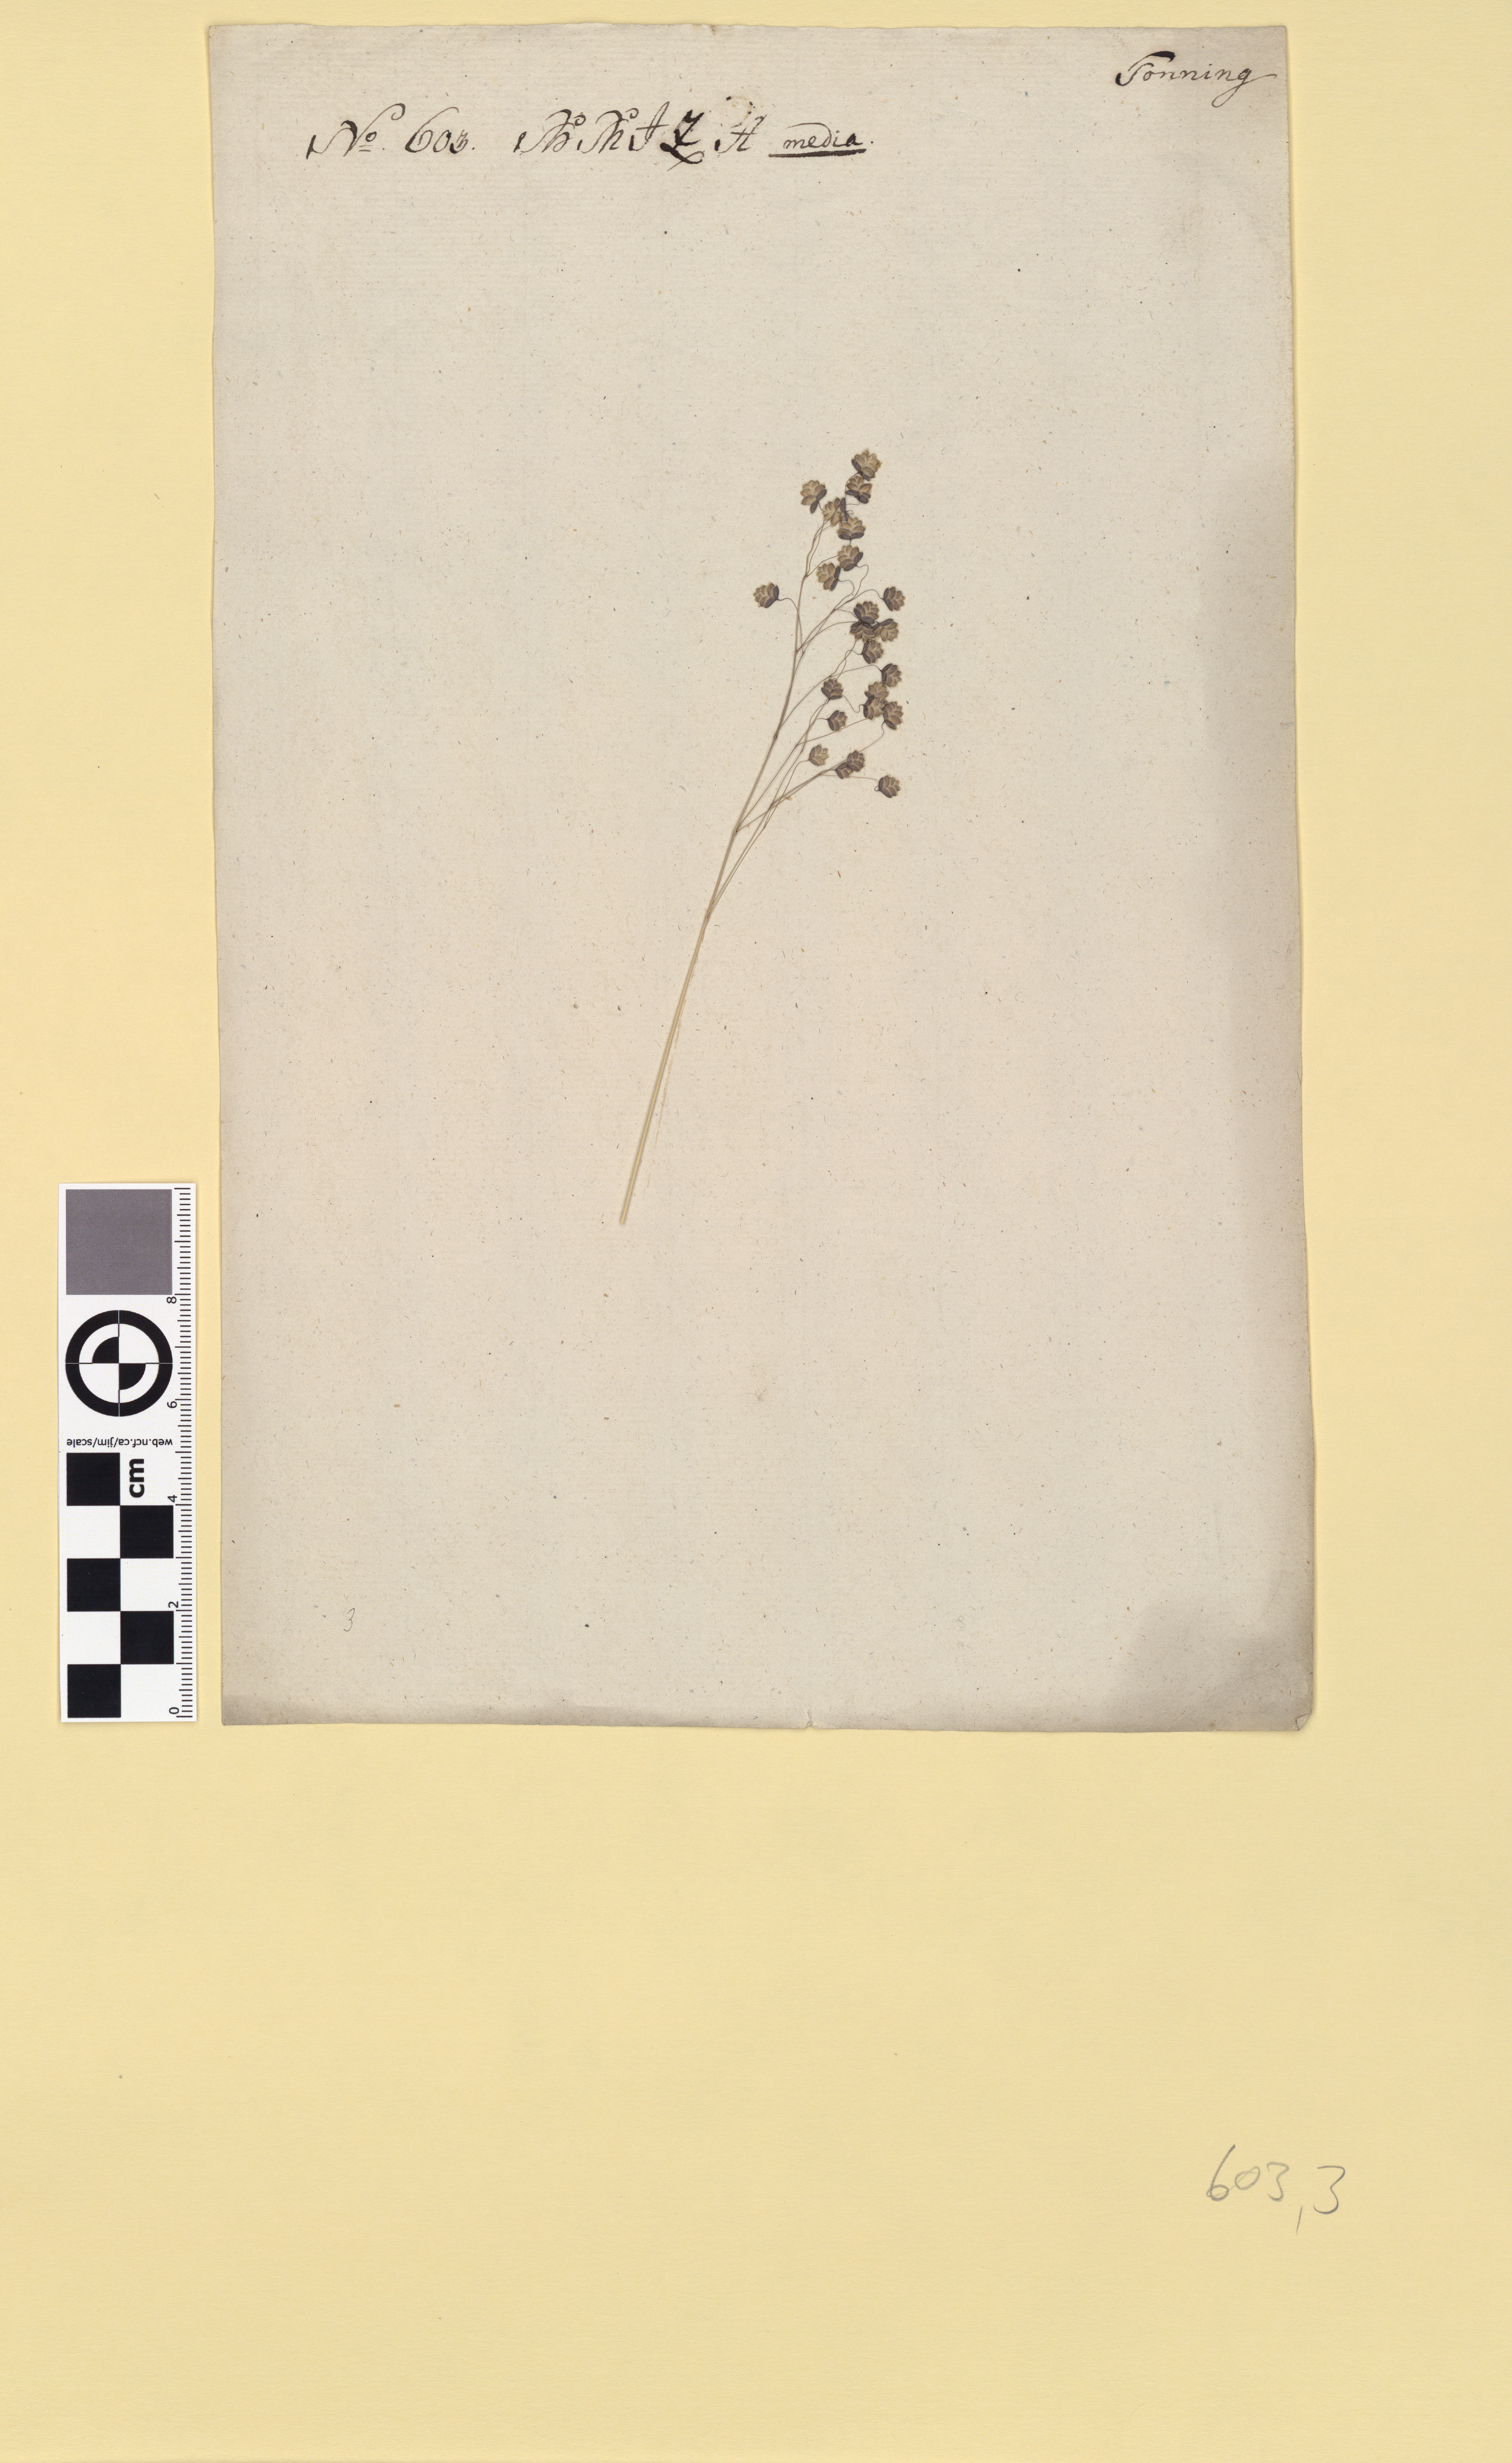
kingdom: Plantae
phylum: Tracheophyta
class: Liliopsida
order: Poales
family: Poaceae
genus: Briza
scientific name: Briza media
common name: Quaking grass
